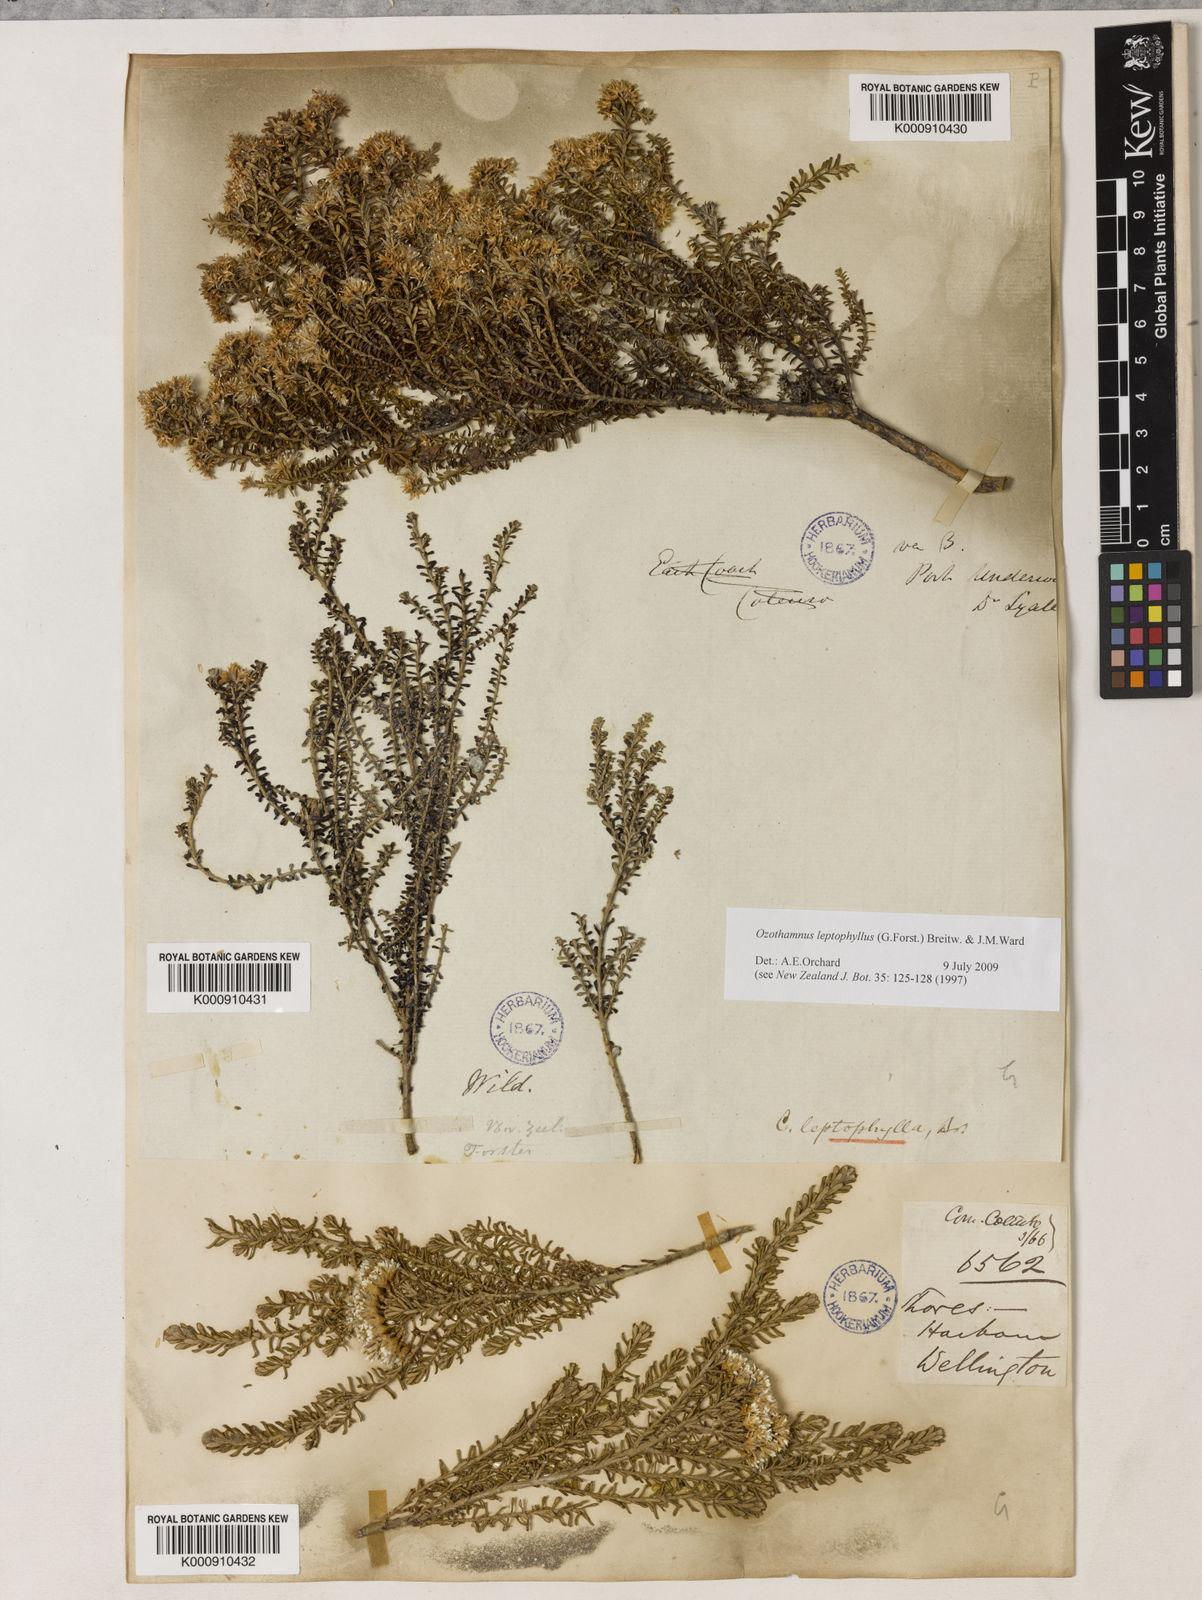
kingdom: Plantae
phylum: Tracheophyta
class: Magnoliopsida
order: Asterales
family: Asteraceae
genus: Ozothamnus
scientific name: Ozothamnus leptophyllus
